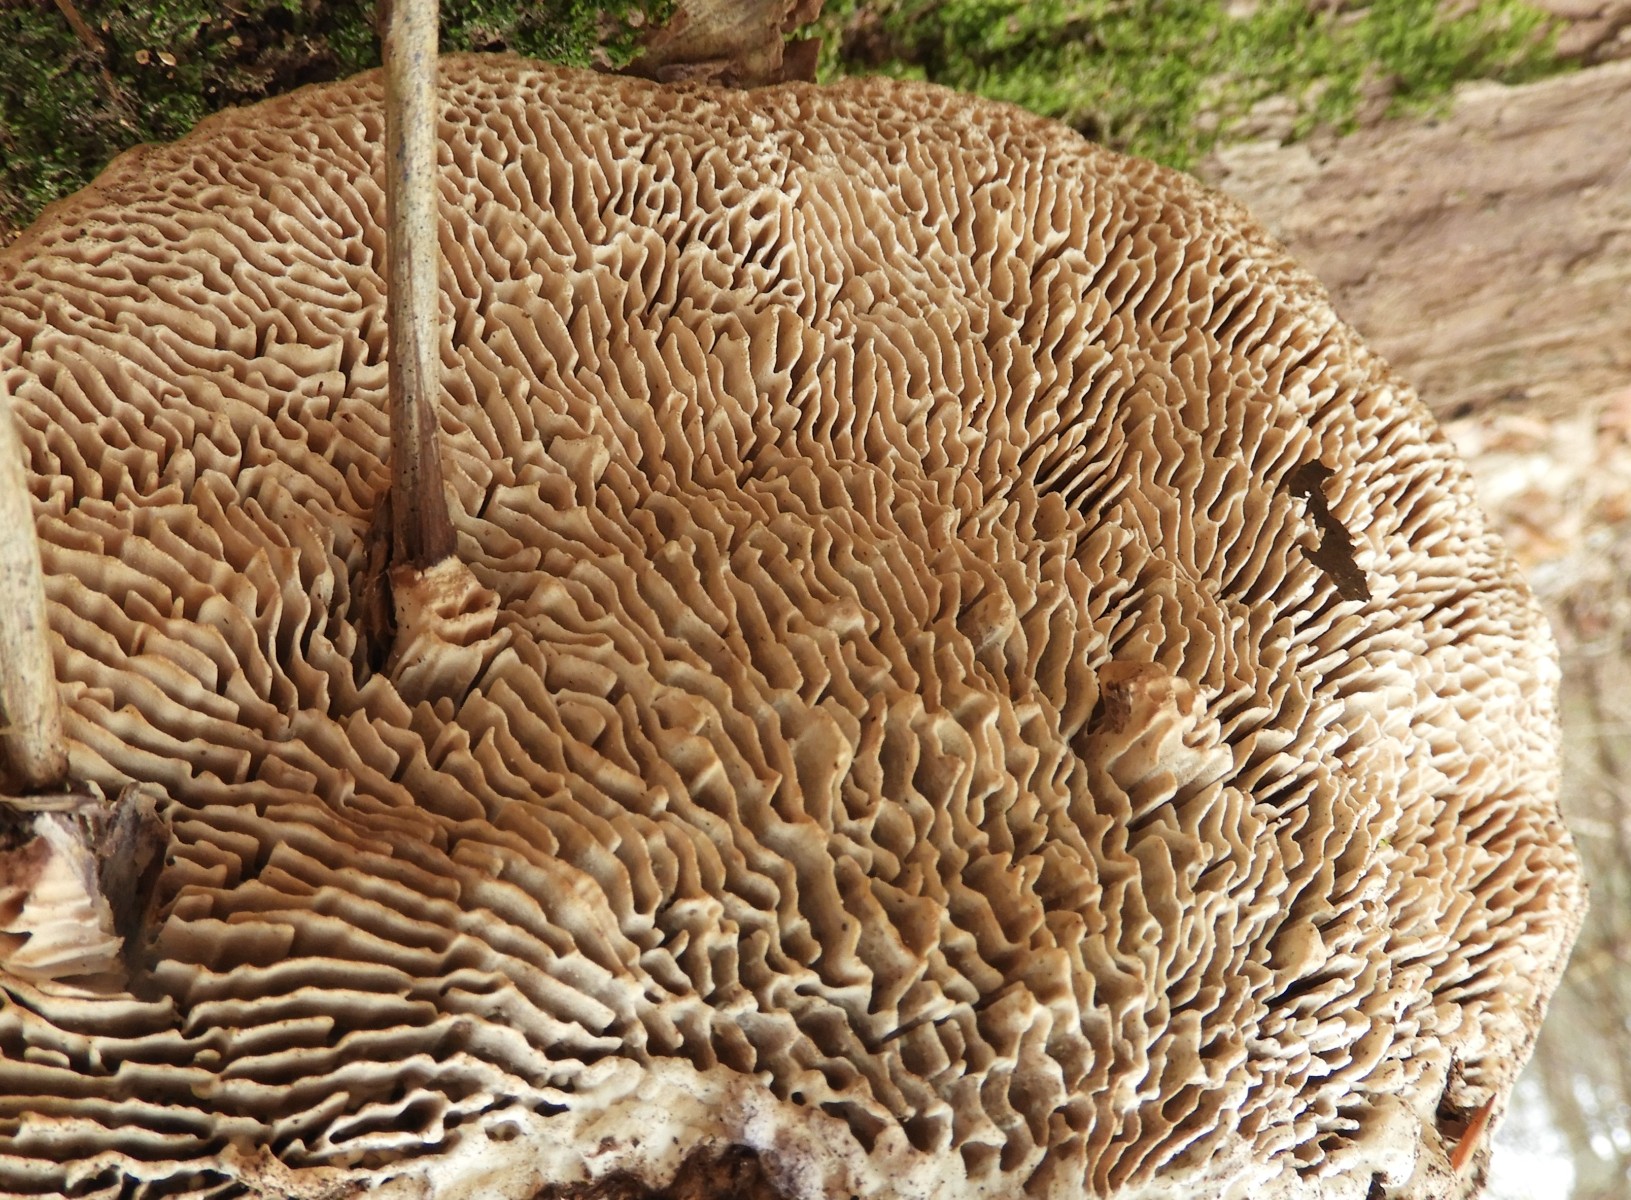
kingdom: Fungi
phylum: Basidiomycota
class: Agaricomycetes
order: Polyporales
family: Fomitopsidaceae
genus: Daedalea
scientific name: Daedalea quercina
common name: ege-labyrintsvamp
